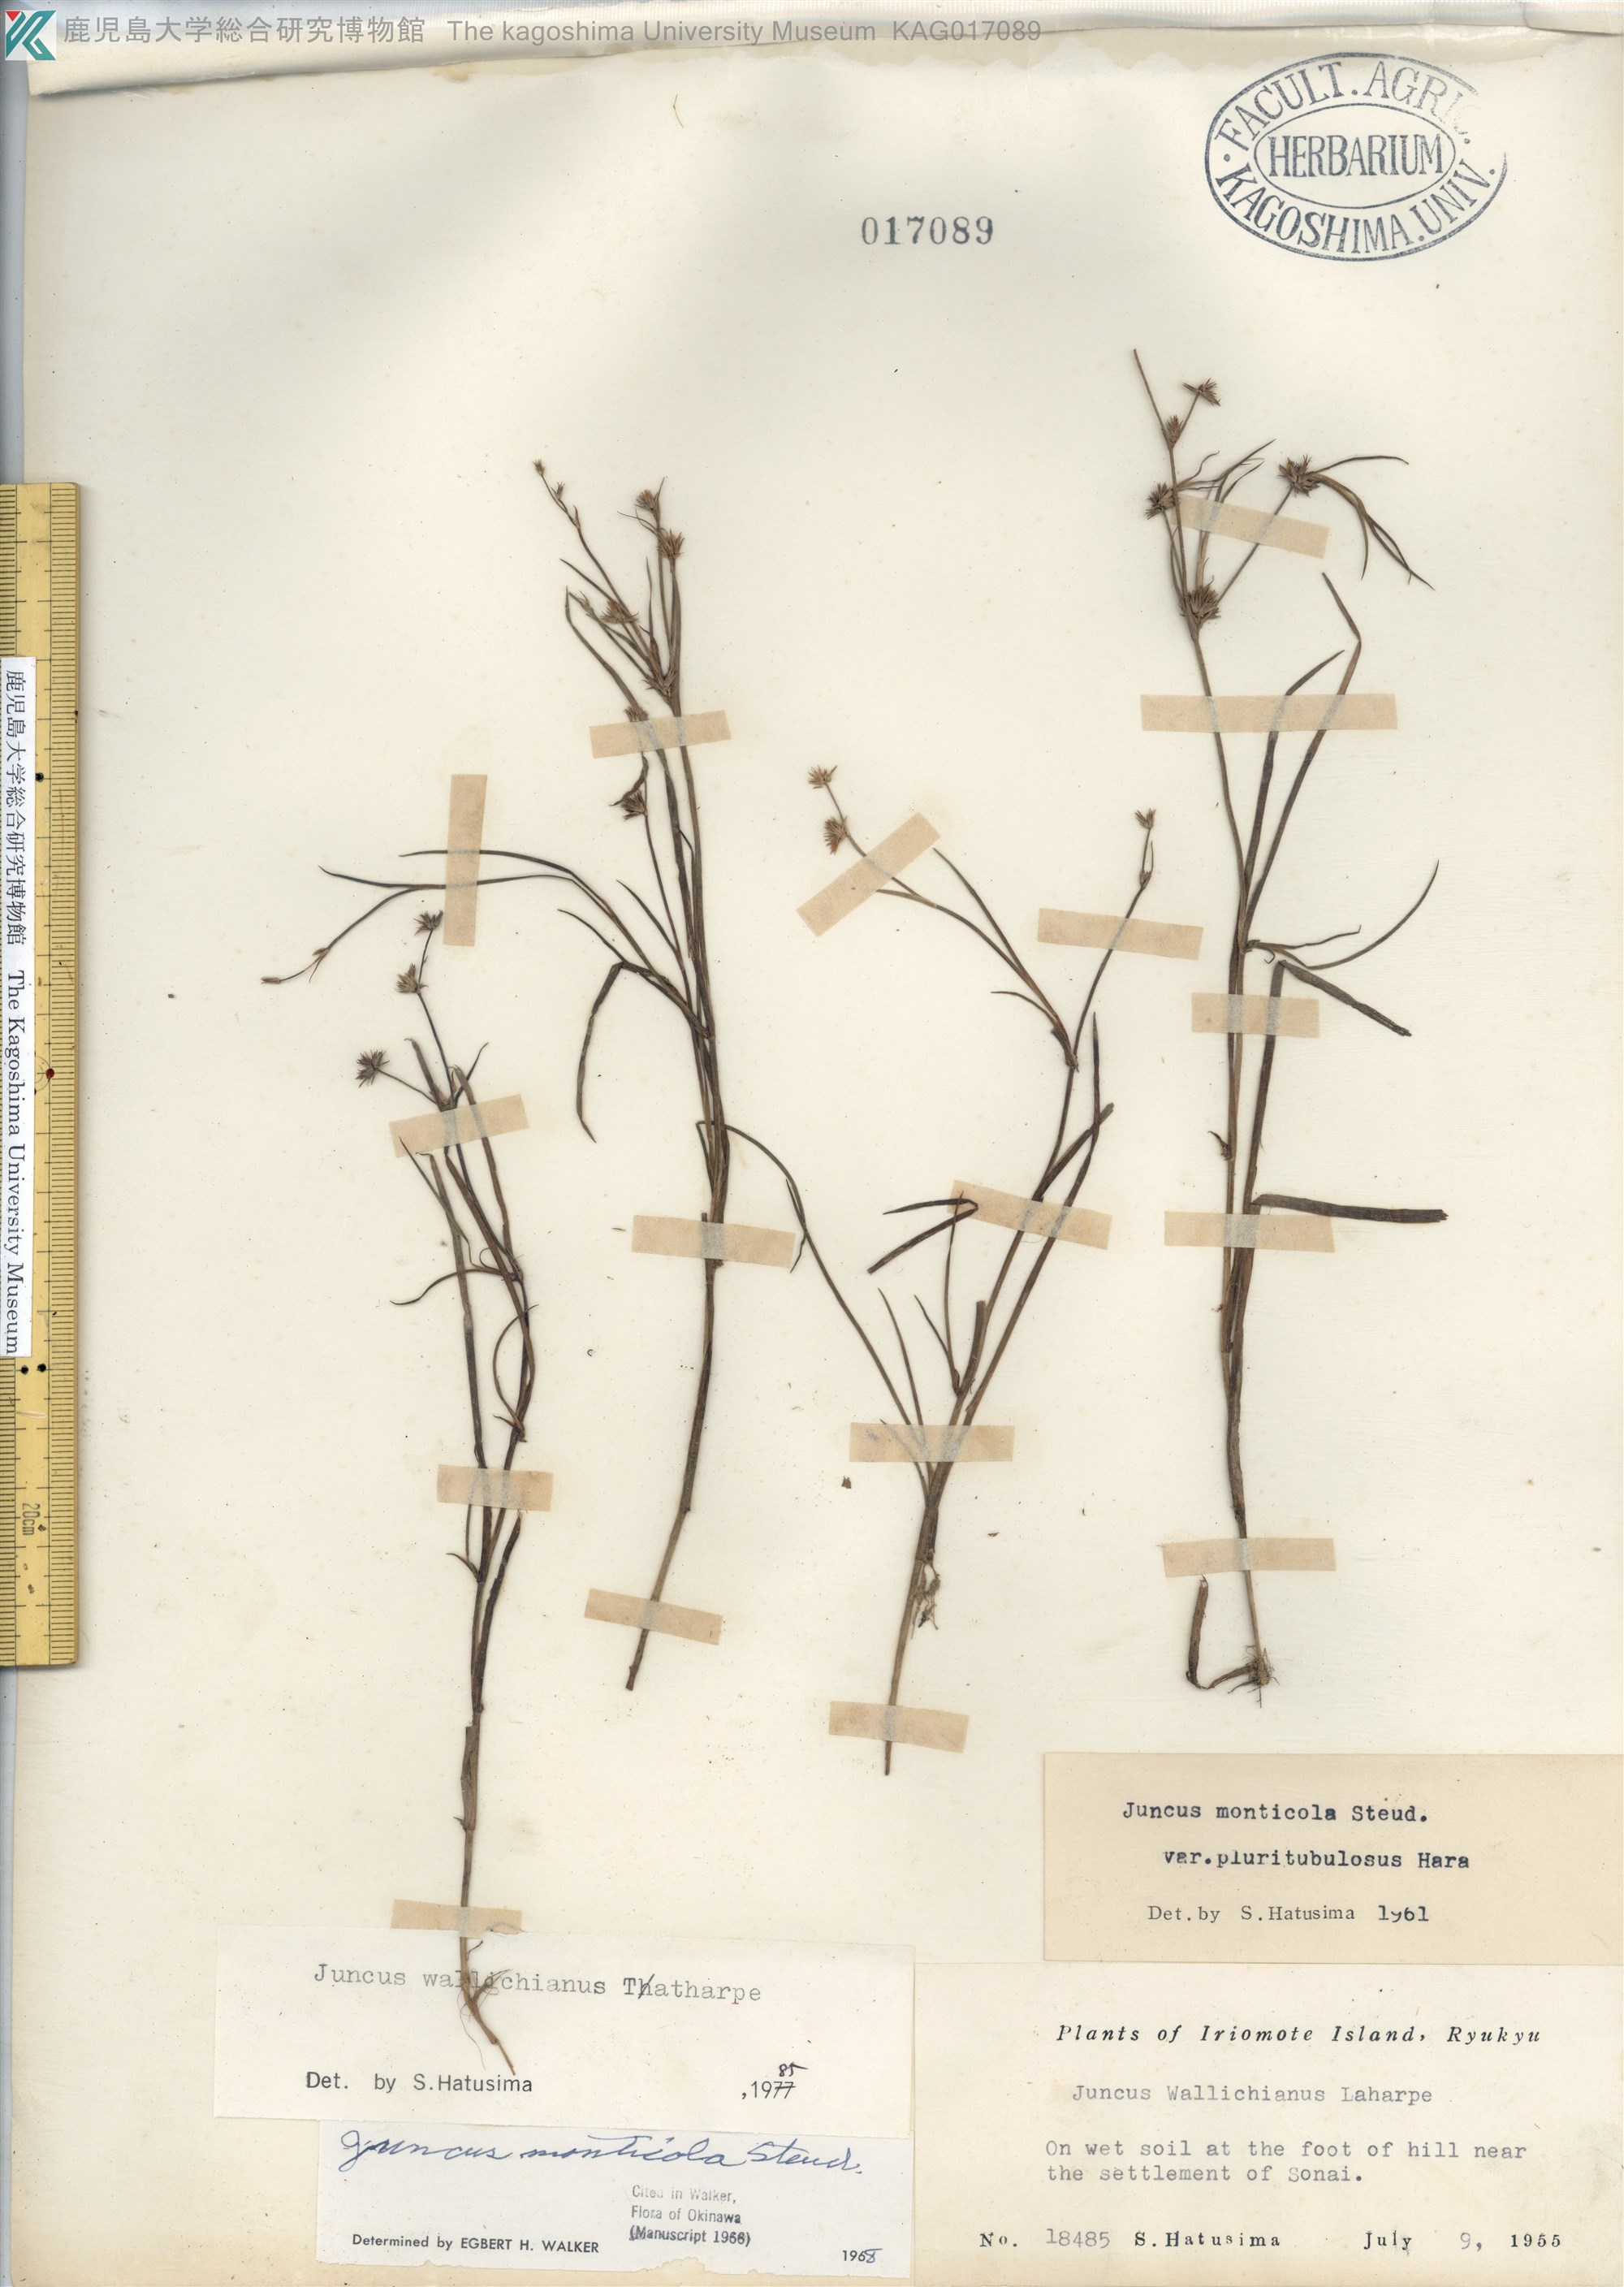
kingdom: Plantae
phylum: Tracheophyta
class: Liliopsida
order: Poales
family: Juncaceae
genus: Juncus
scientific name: Juncus prismatocarpus
